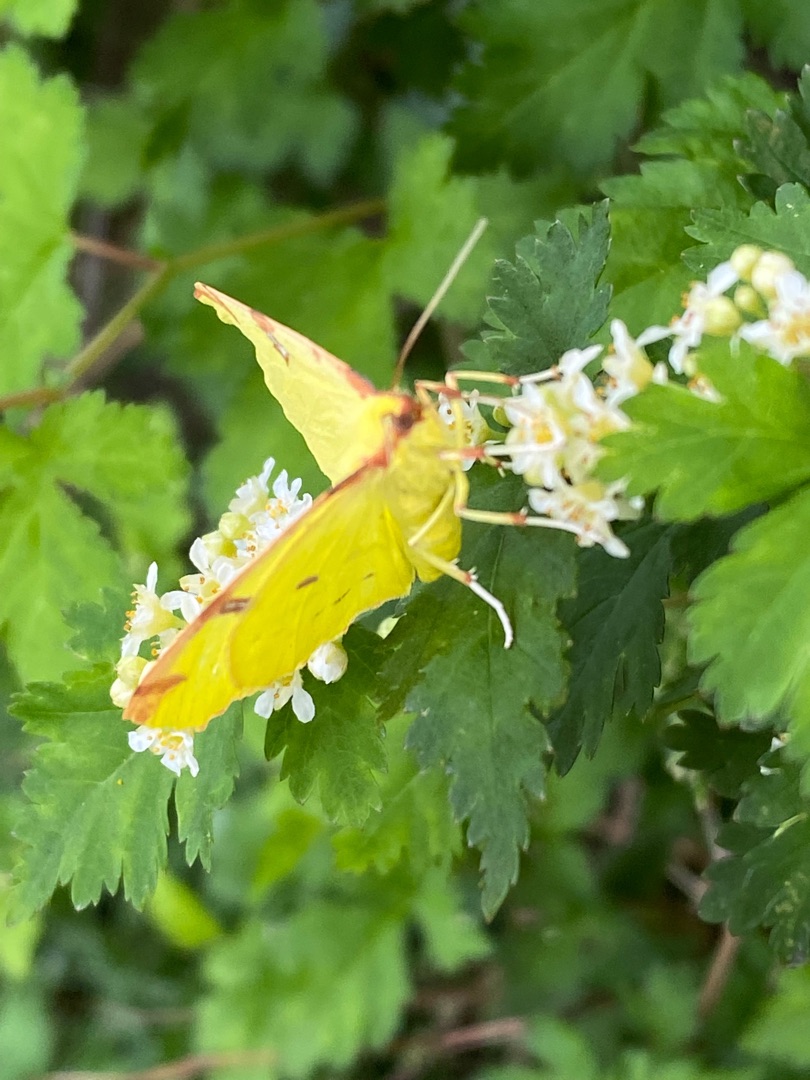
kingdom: Animalia
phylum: Arthropoda
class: Insecta
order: Lepidoptera
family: Geometridae
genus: Opisthograptis
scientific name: Opisthograptis luteolata
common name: Citronmåler
